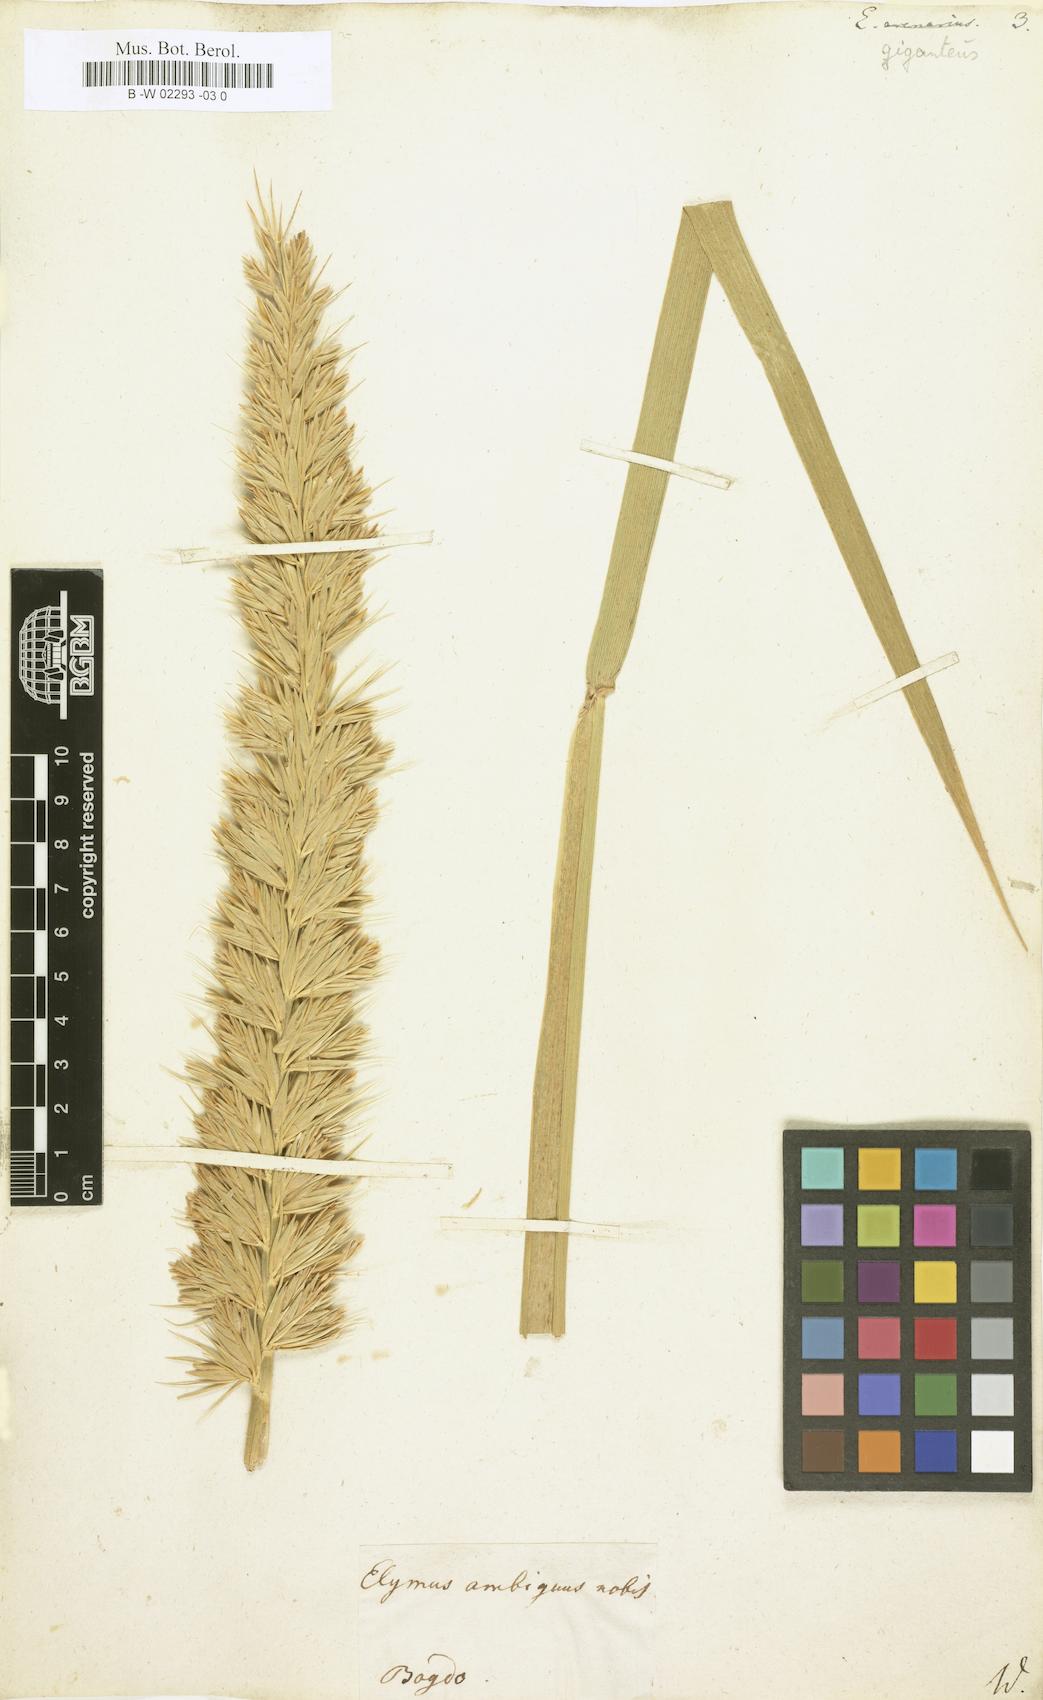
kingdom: Plantae
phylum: Tracheophyta
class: Liliopsida
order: Poales
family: Poaceae
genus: Leymus
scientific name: Leymus racemosus
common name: Mammoth wildrye
